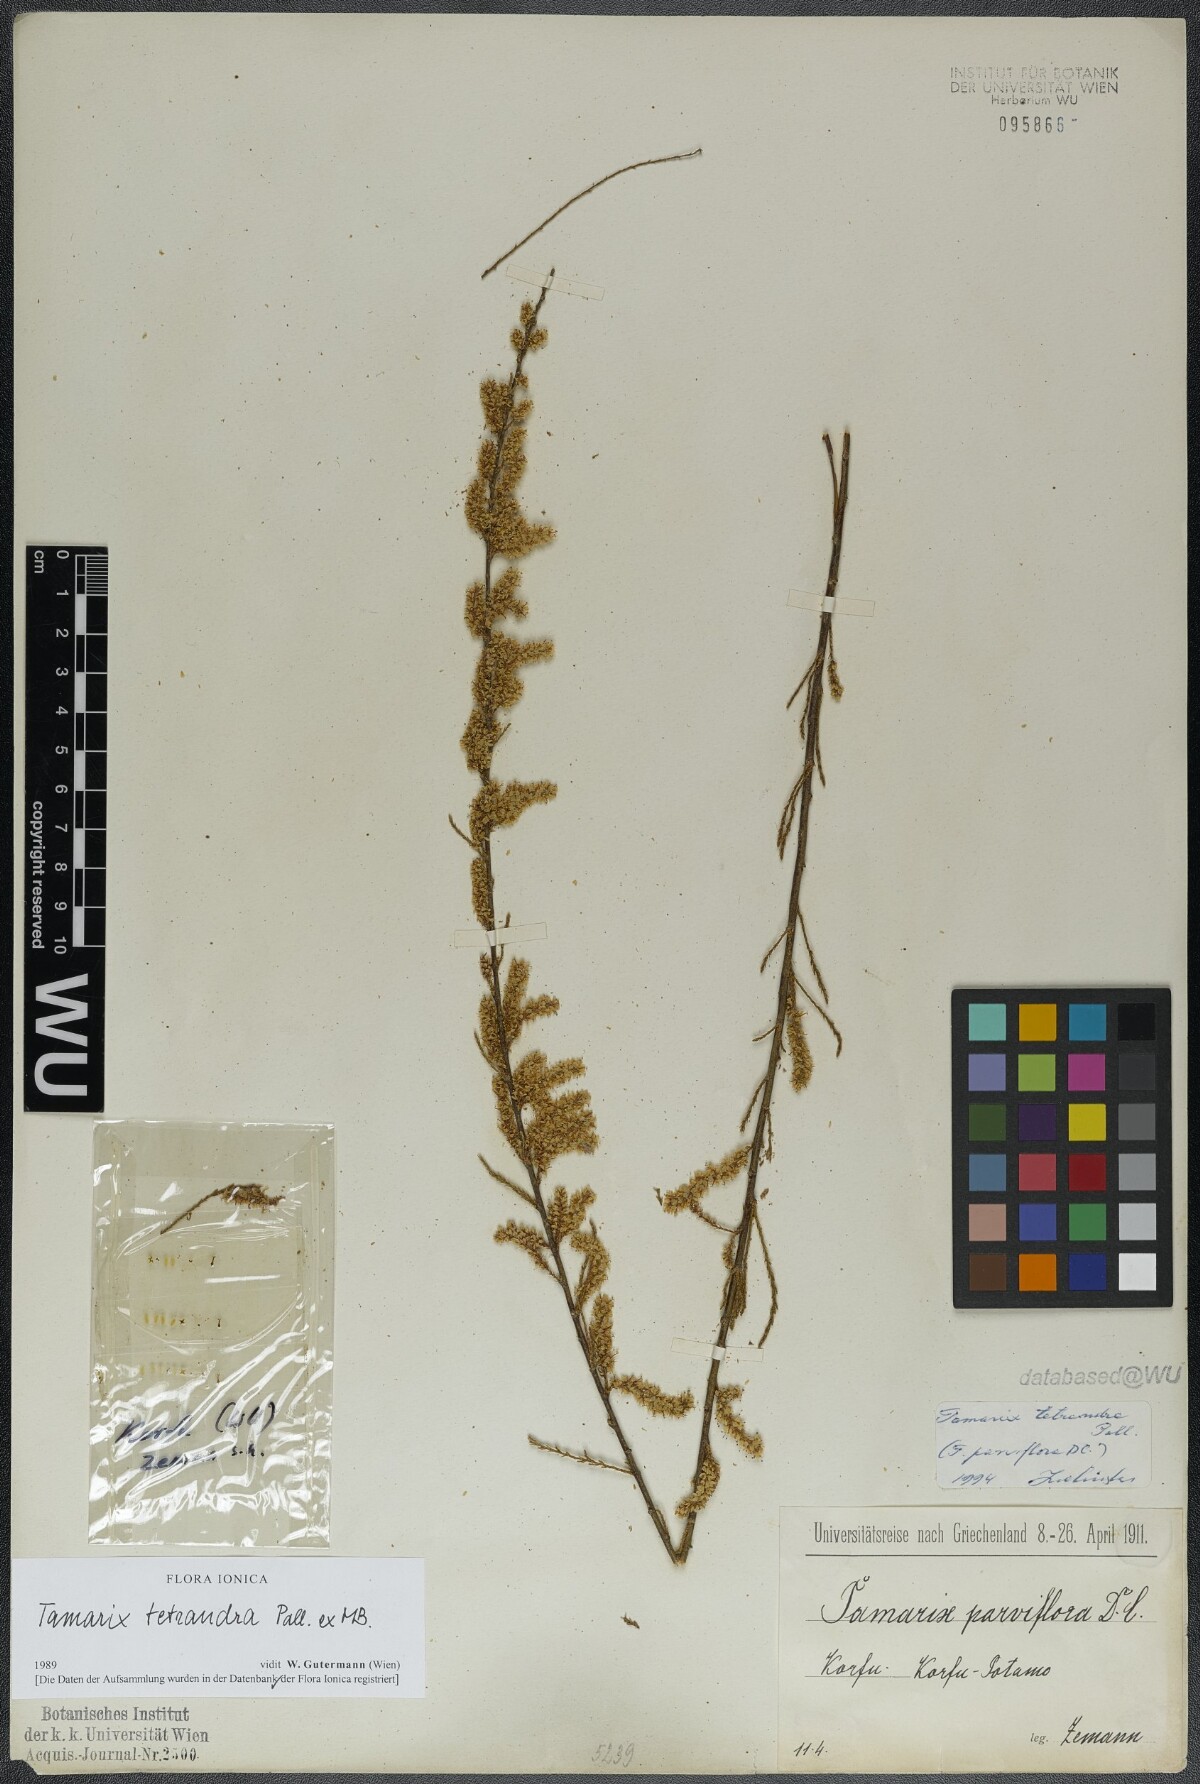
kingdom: Plantae
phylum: Tracheophyta
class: Magnoliopsida
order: Caryophyllales
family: Tamaricaceae
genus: Tamarix
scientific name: Tamarix tetrandra
